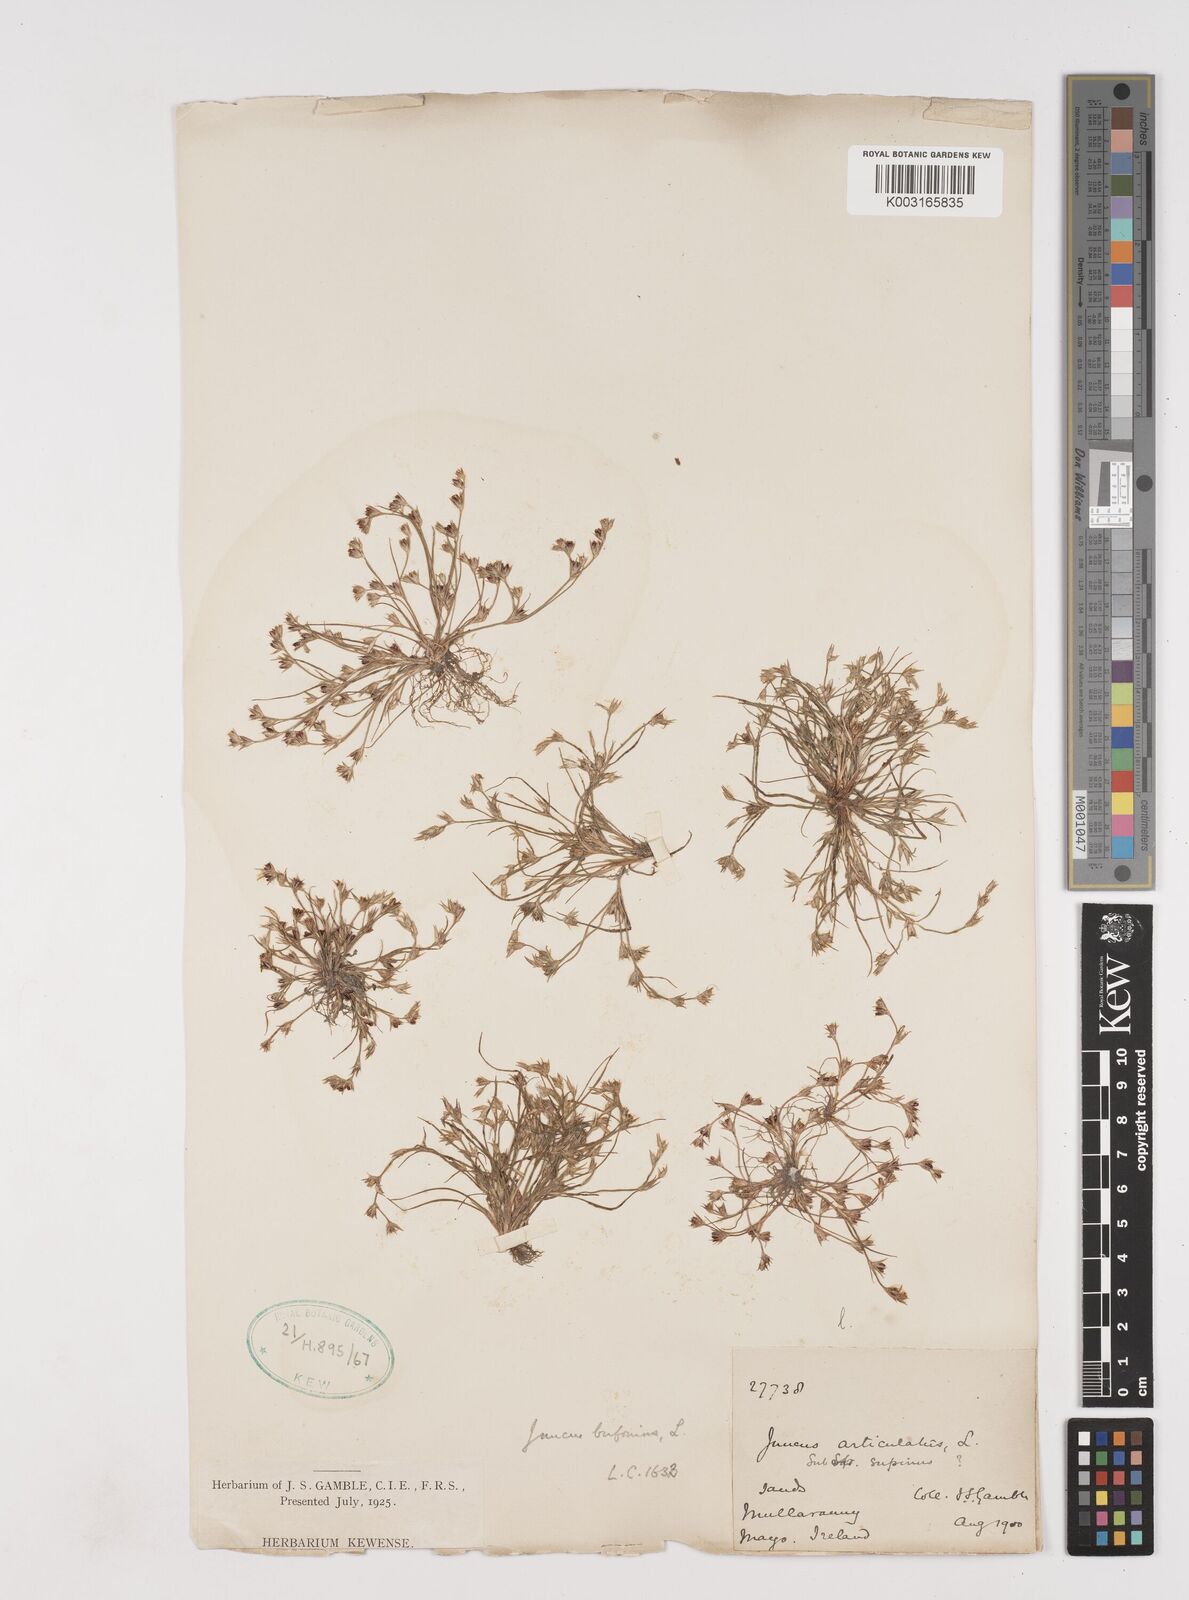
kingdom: Plantae
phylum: Tracheophyta
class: Liliopsida
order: Poales
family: Juncaceae
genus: Juncus
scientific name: Juncus bufonius
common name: Toad rush
